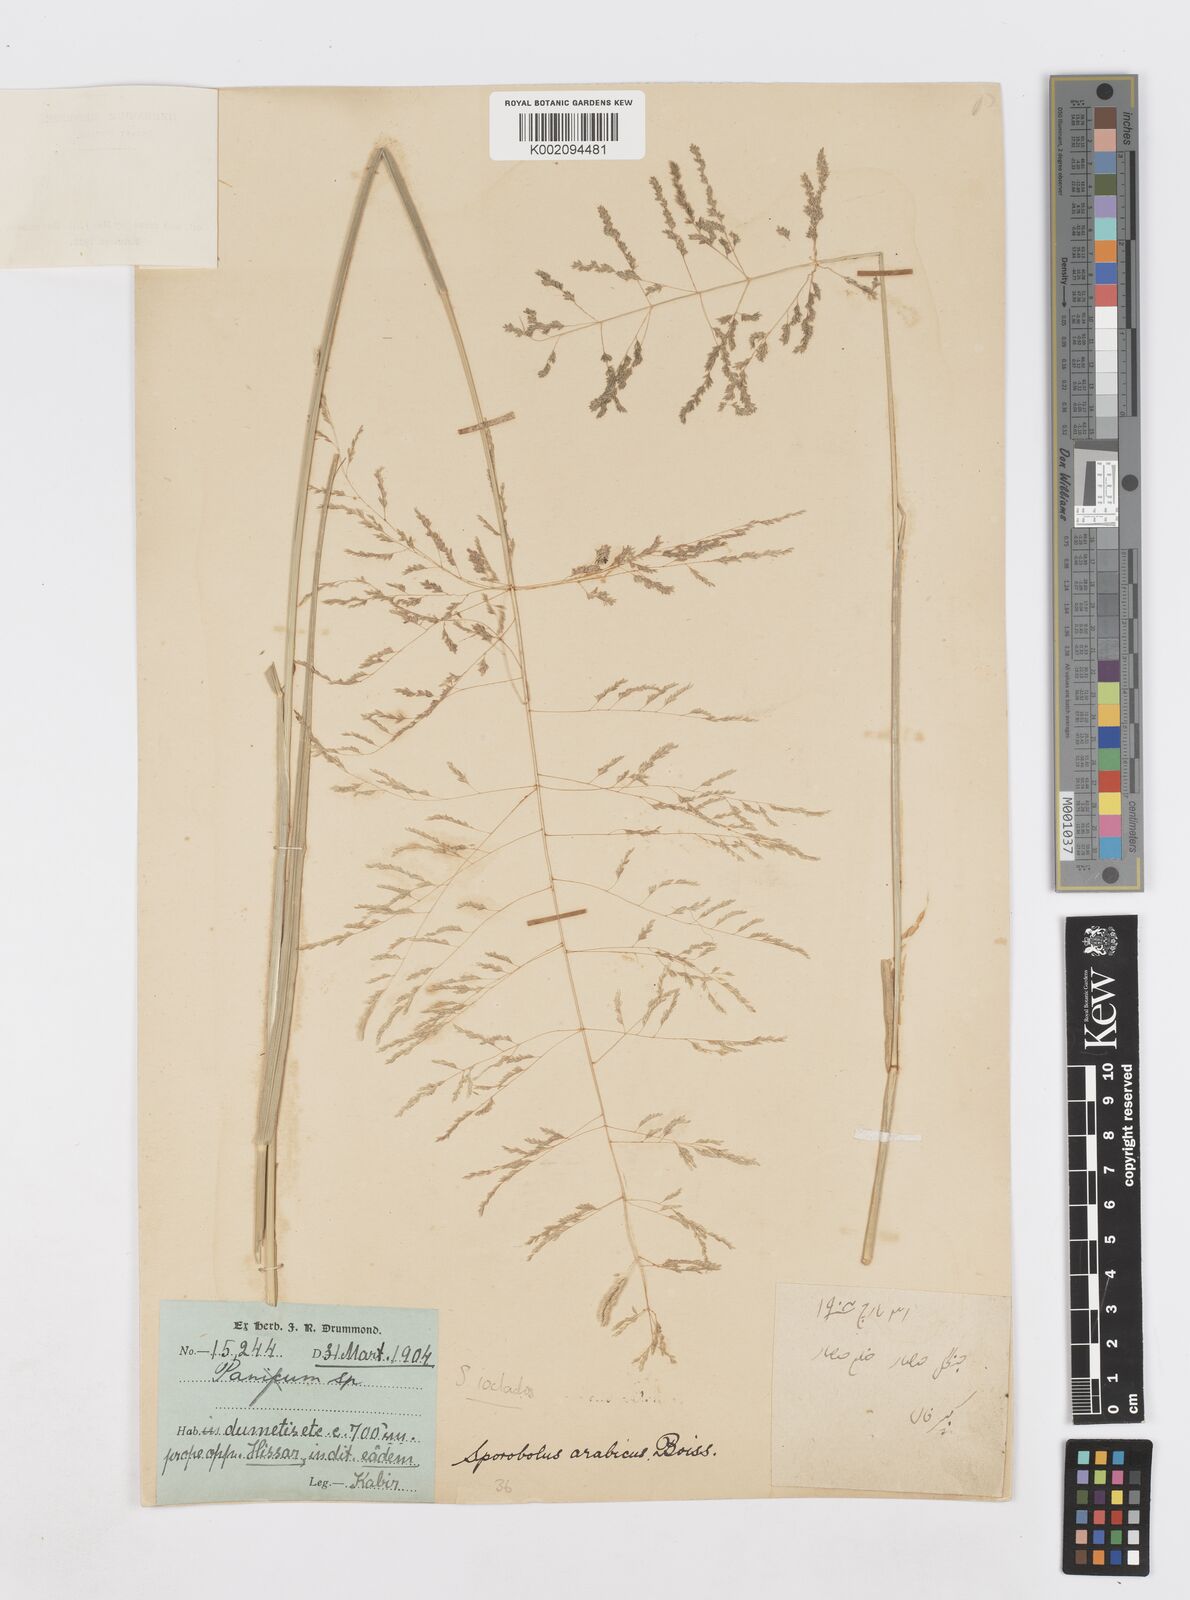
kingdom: Plantae
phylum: Tracheophyta
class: Liliopsida
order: Poales
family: Poaceae
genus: Sporobolus
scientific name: Sporobolus ioclados
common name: Pan dropseed
